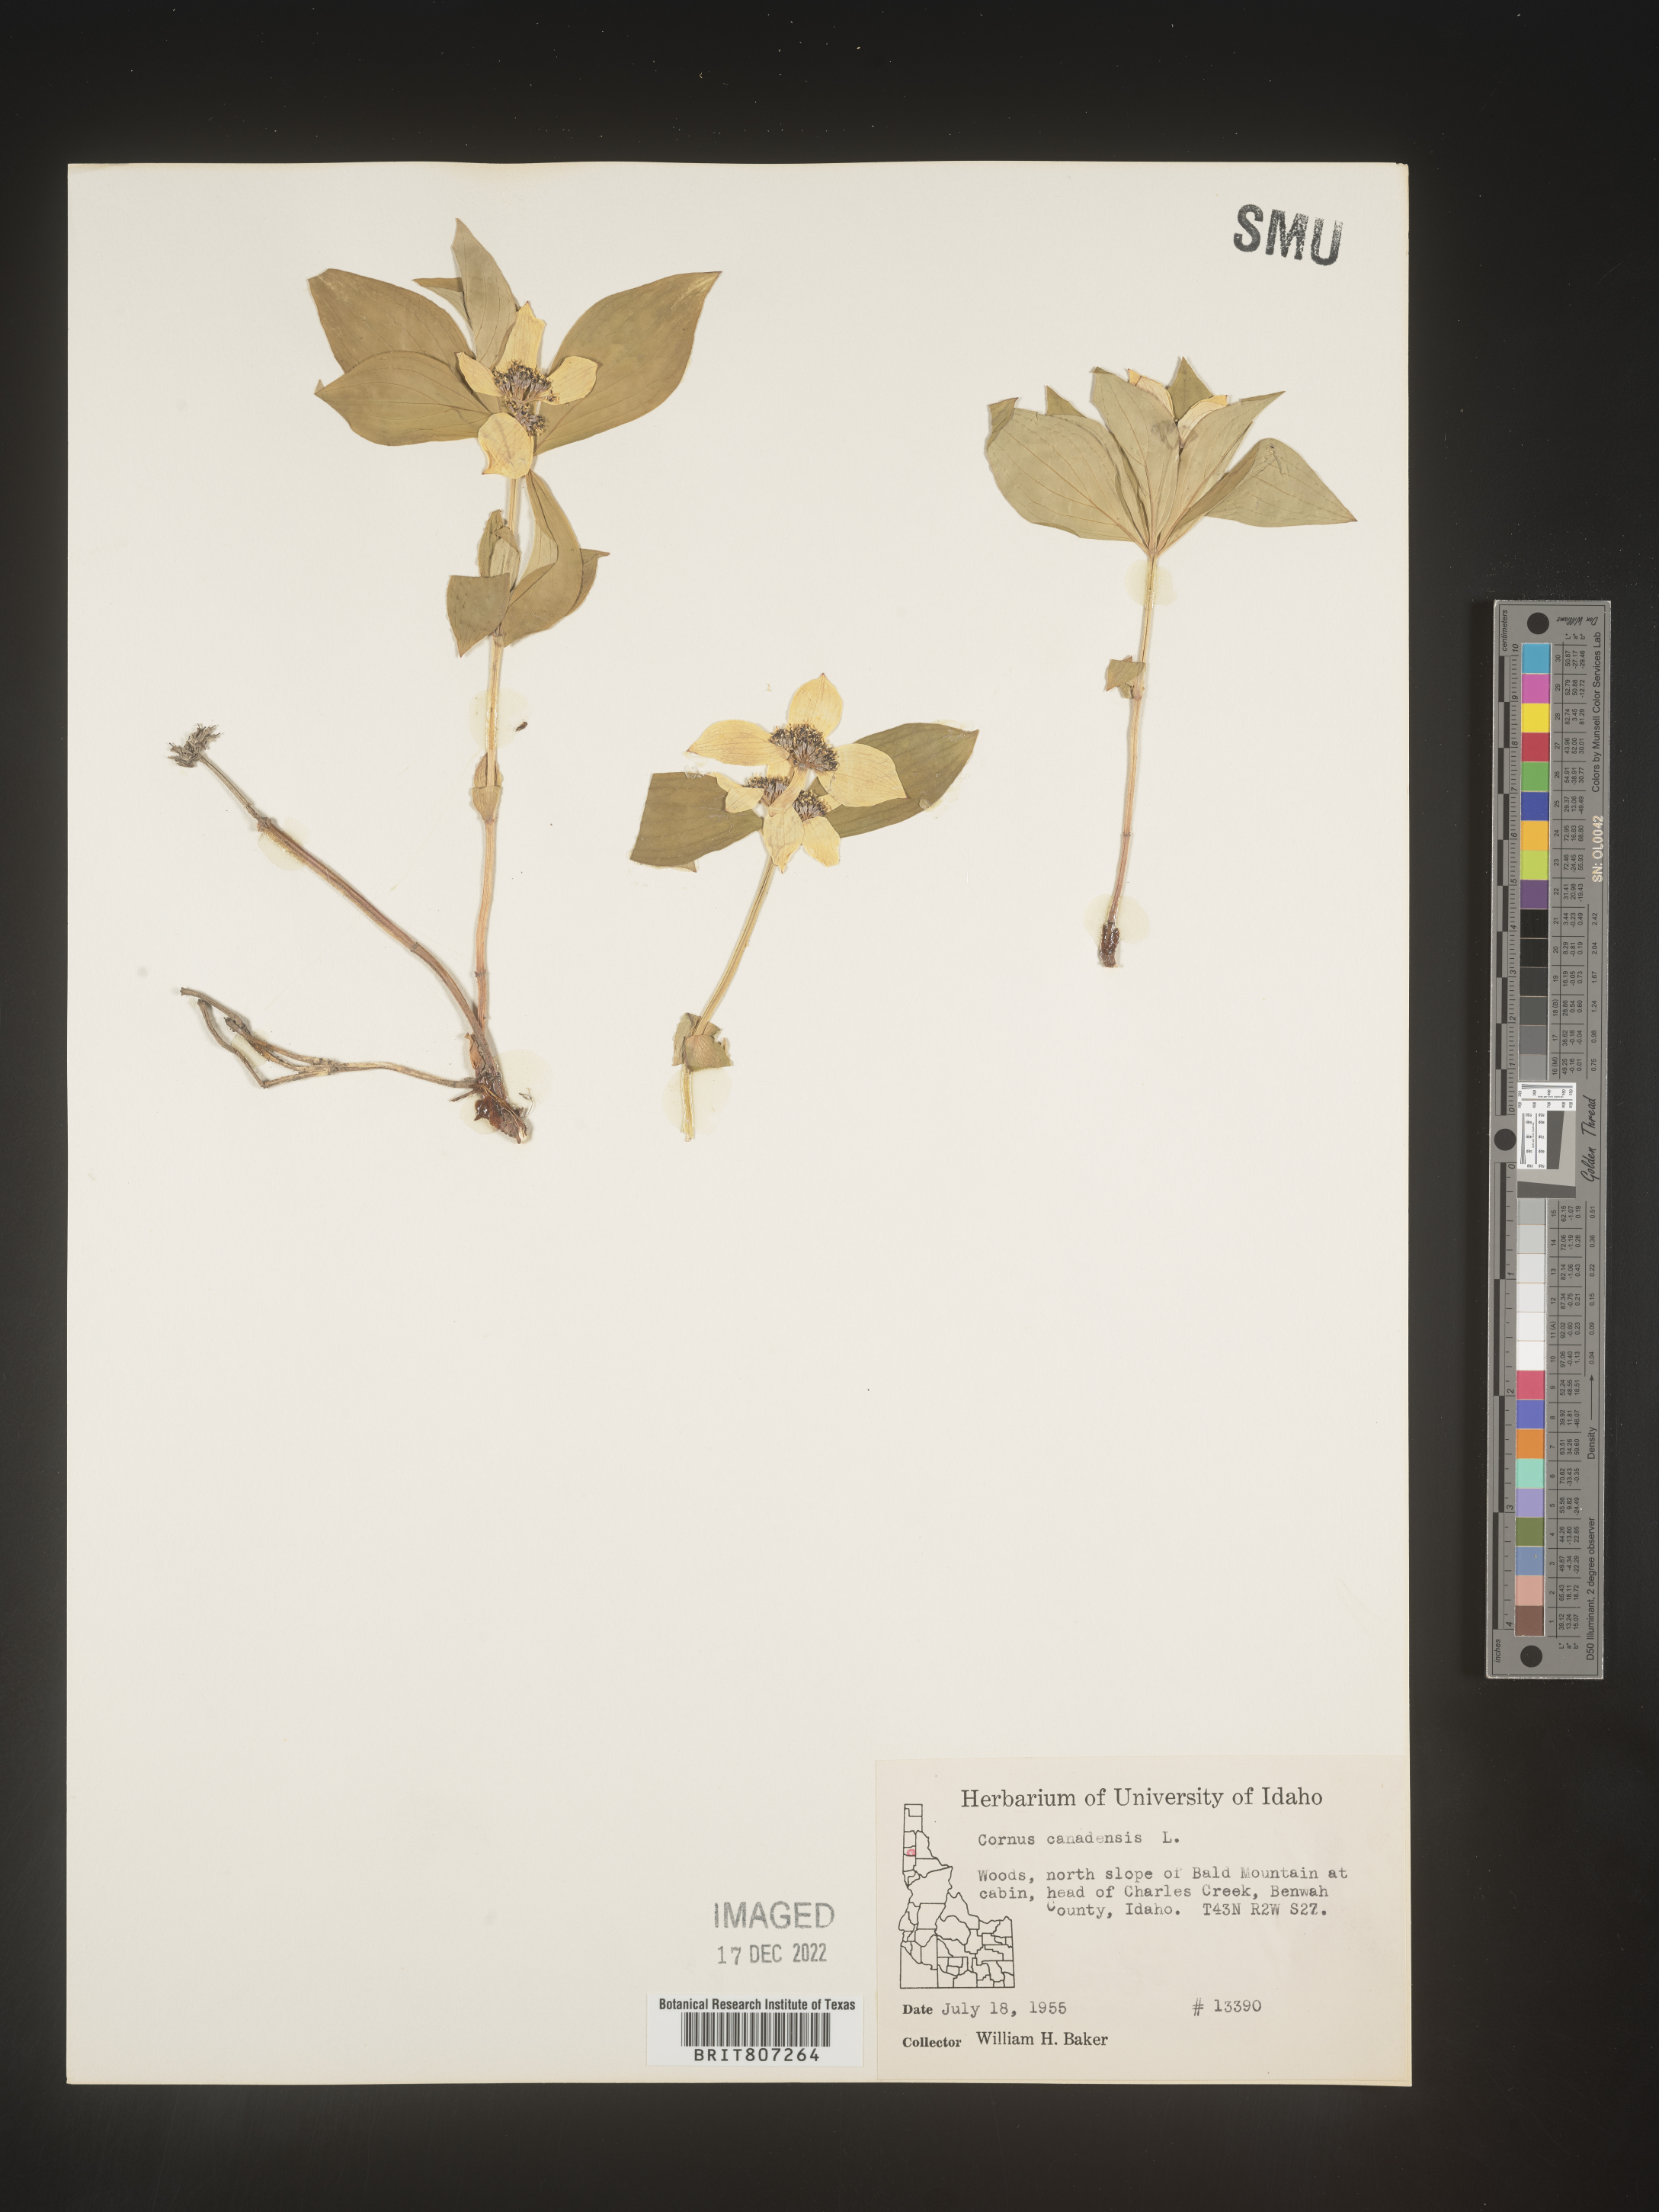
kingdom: Plantae
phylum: Tracheophyta
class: Magnoliopsida
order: Cornales
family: Cornaceae
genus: Cornus
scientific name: Cornus canadensis
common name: Creeping dogwood
